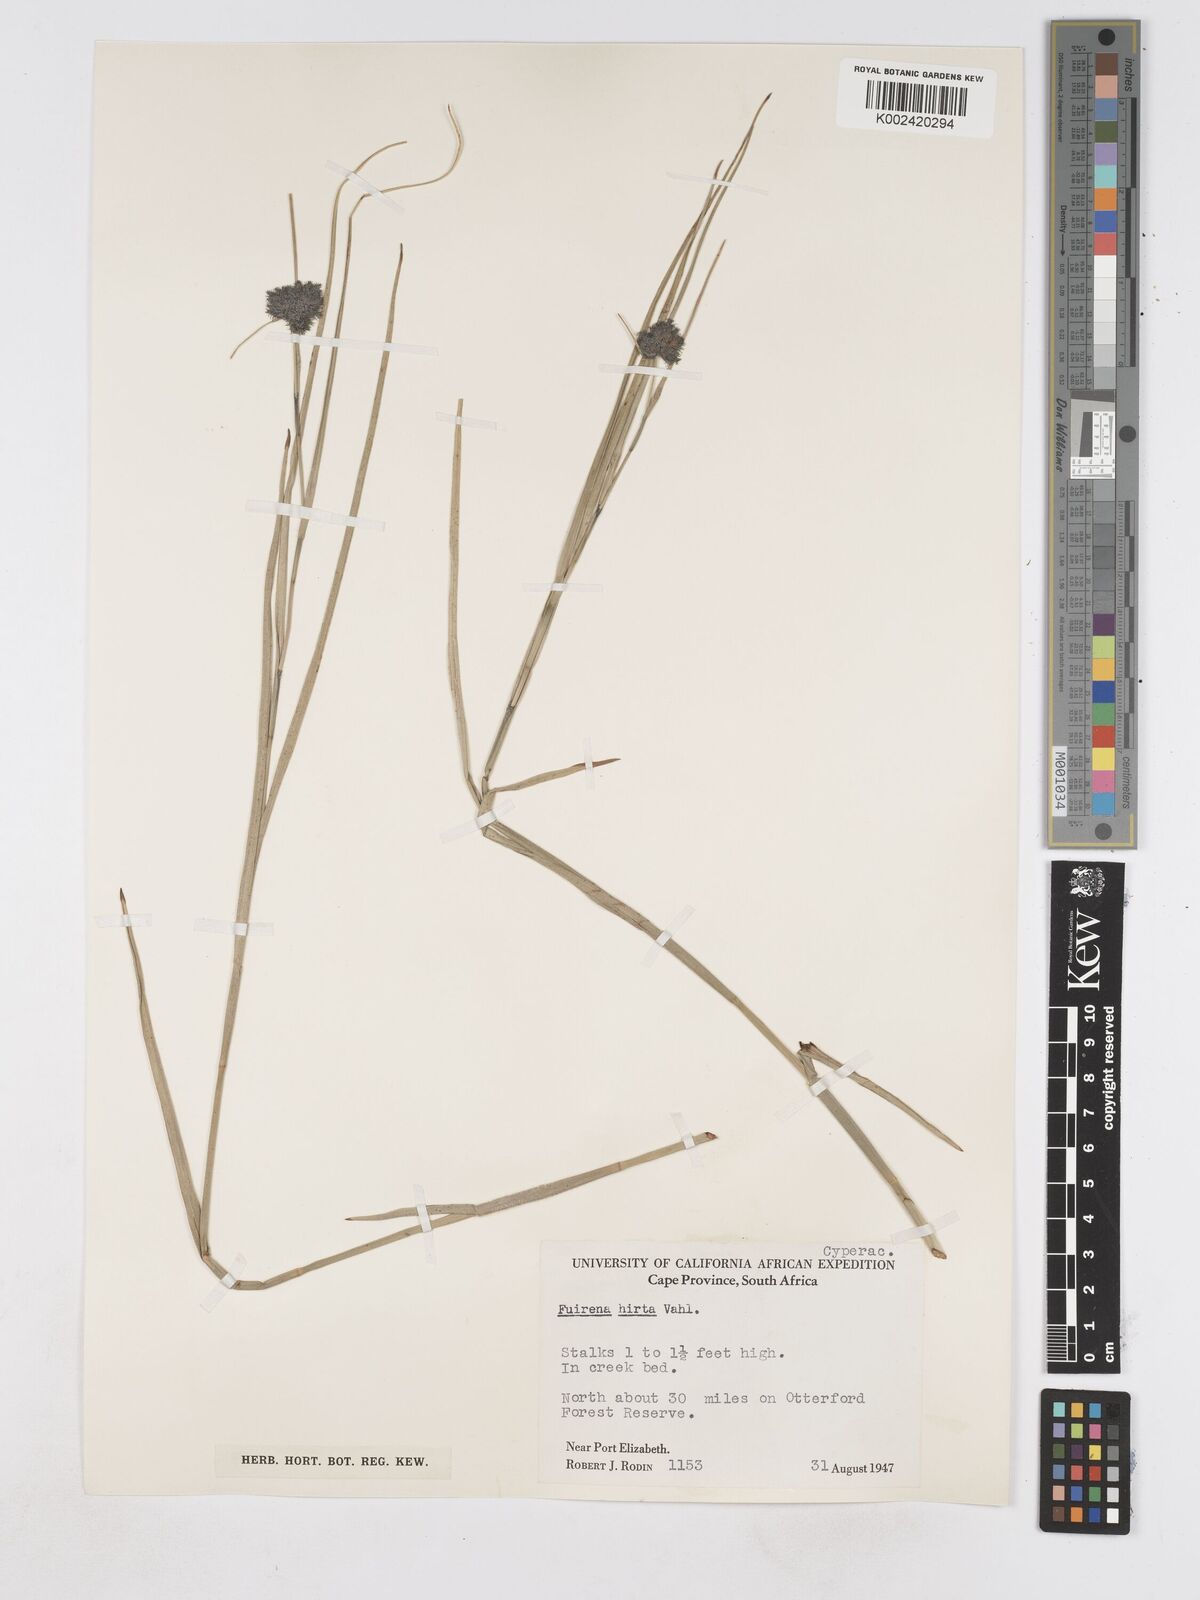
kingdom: Plantae
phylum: Tracheophyta
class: Liliopsida
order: Poales
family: Cyperaceae
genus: Fuirena
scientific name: Fuirena hirsuta
